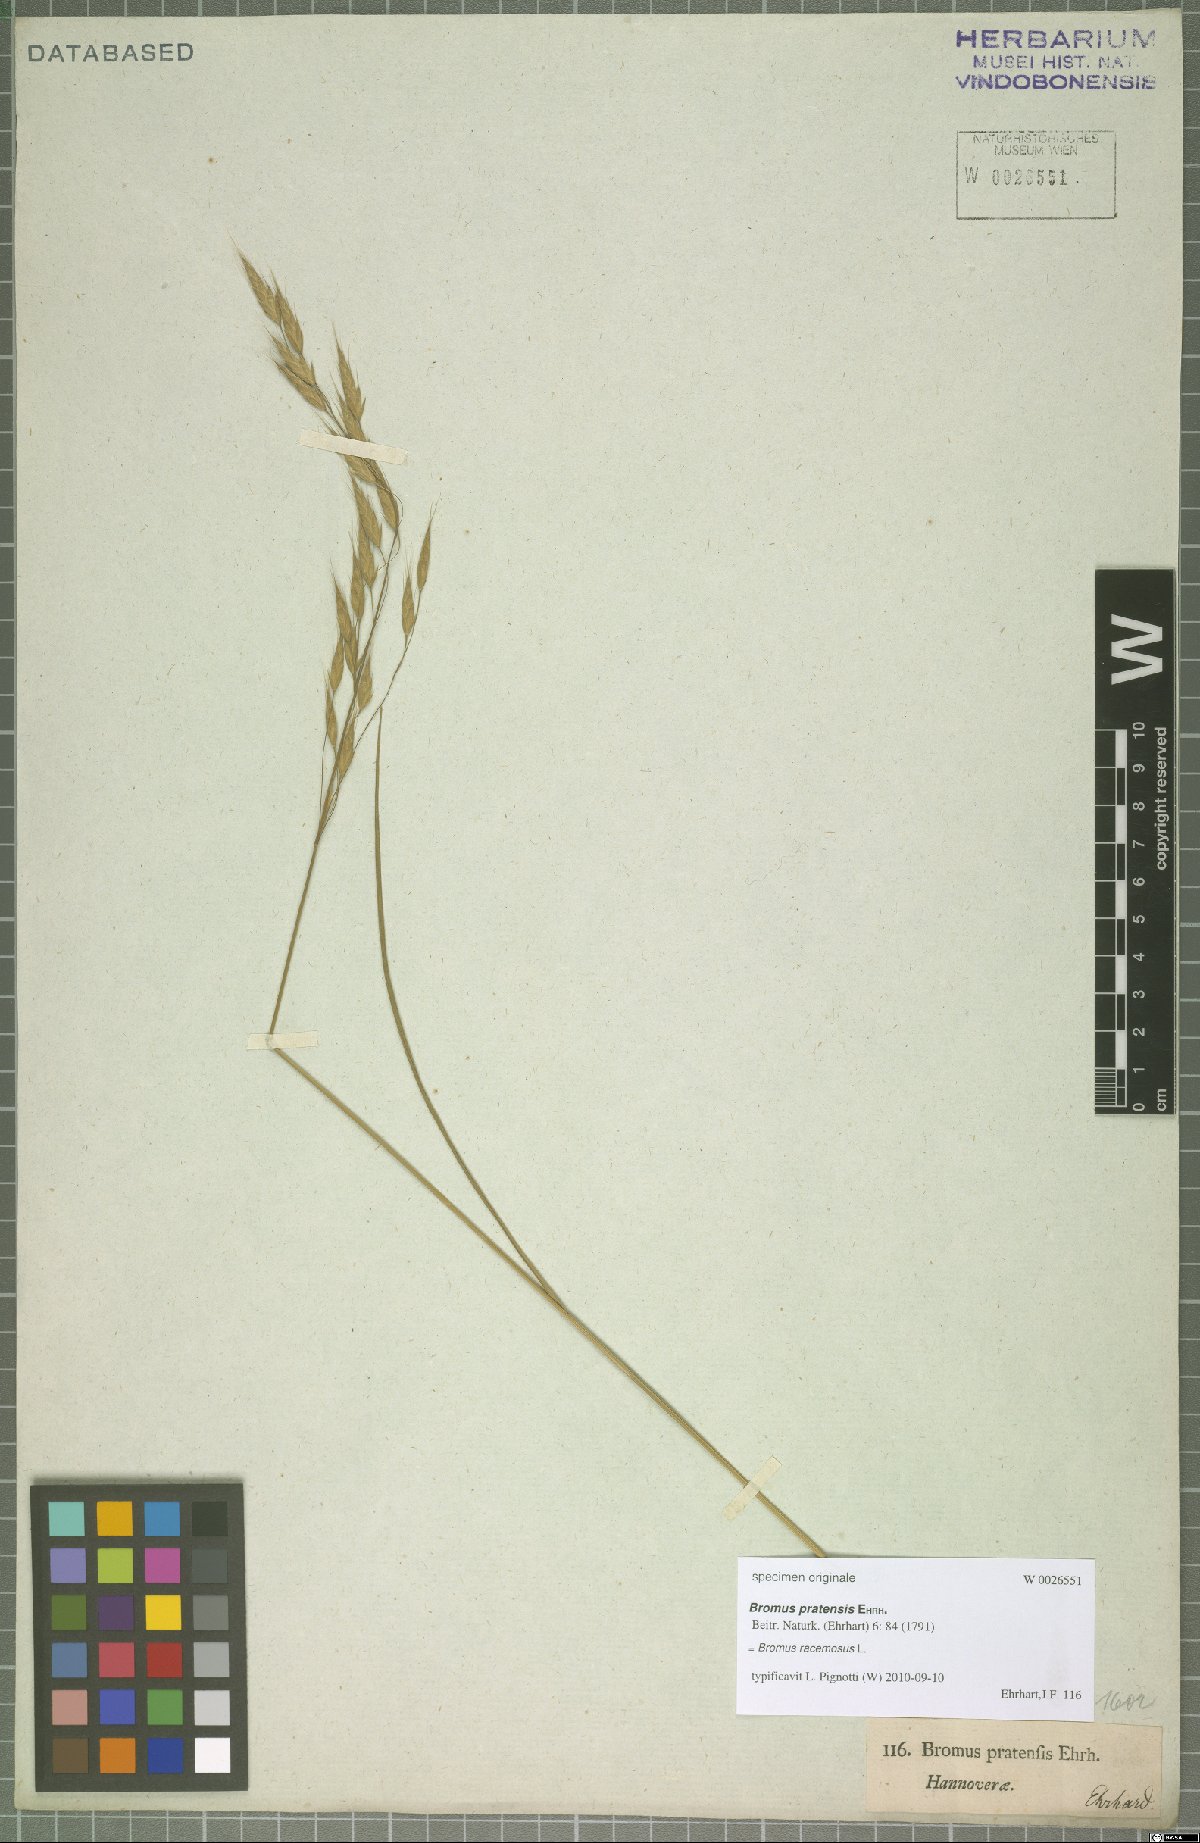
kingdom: Plantae
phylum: Tracheophyta
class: Liliopsida
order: Poales
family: Poaceae
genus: Bromus
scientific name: Bromus racemosus
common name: Bald brome
